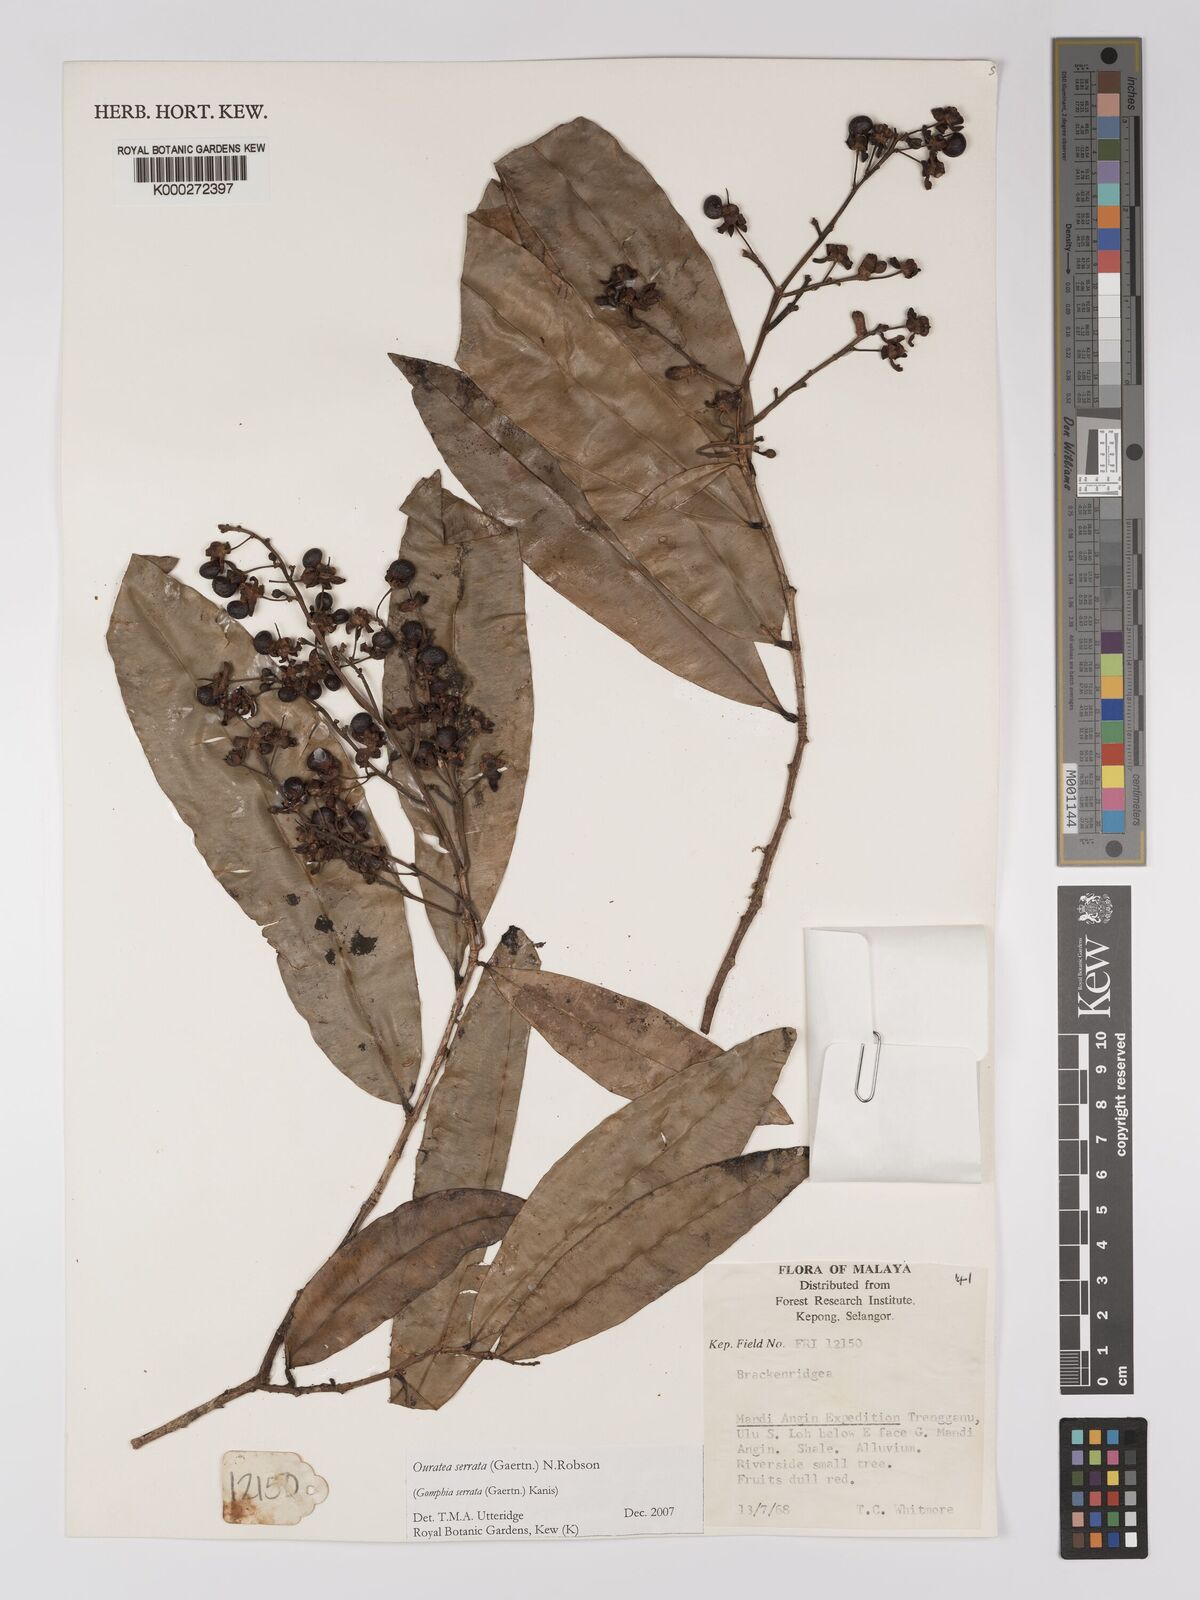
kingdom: Plantae
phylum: Tracheophyta
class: Magnoliopsida
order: Malpighiales
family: Ochnaceae
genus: Gomphia
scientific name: Gomphia serrata
